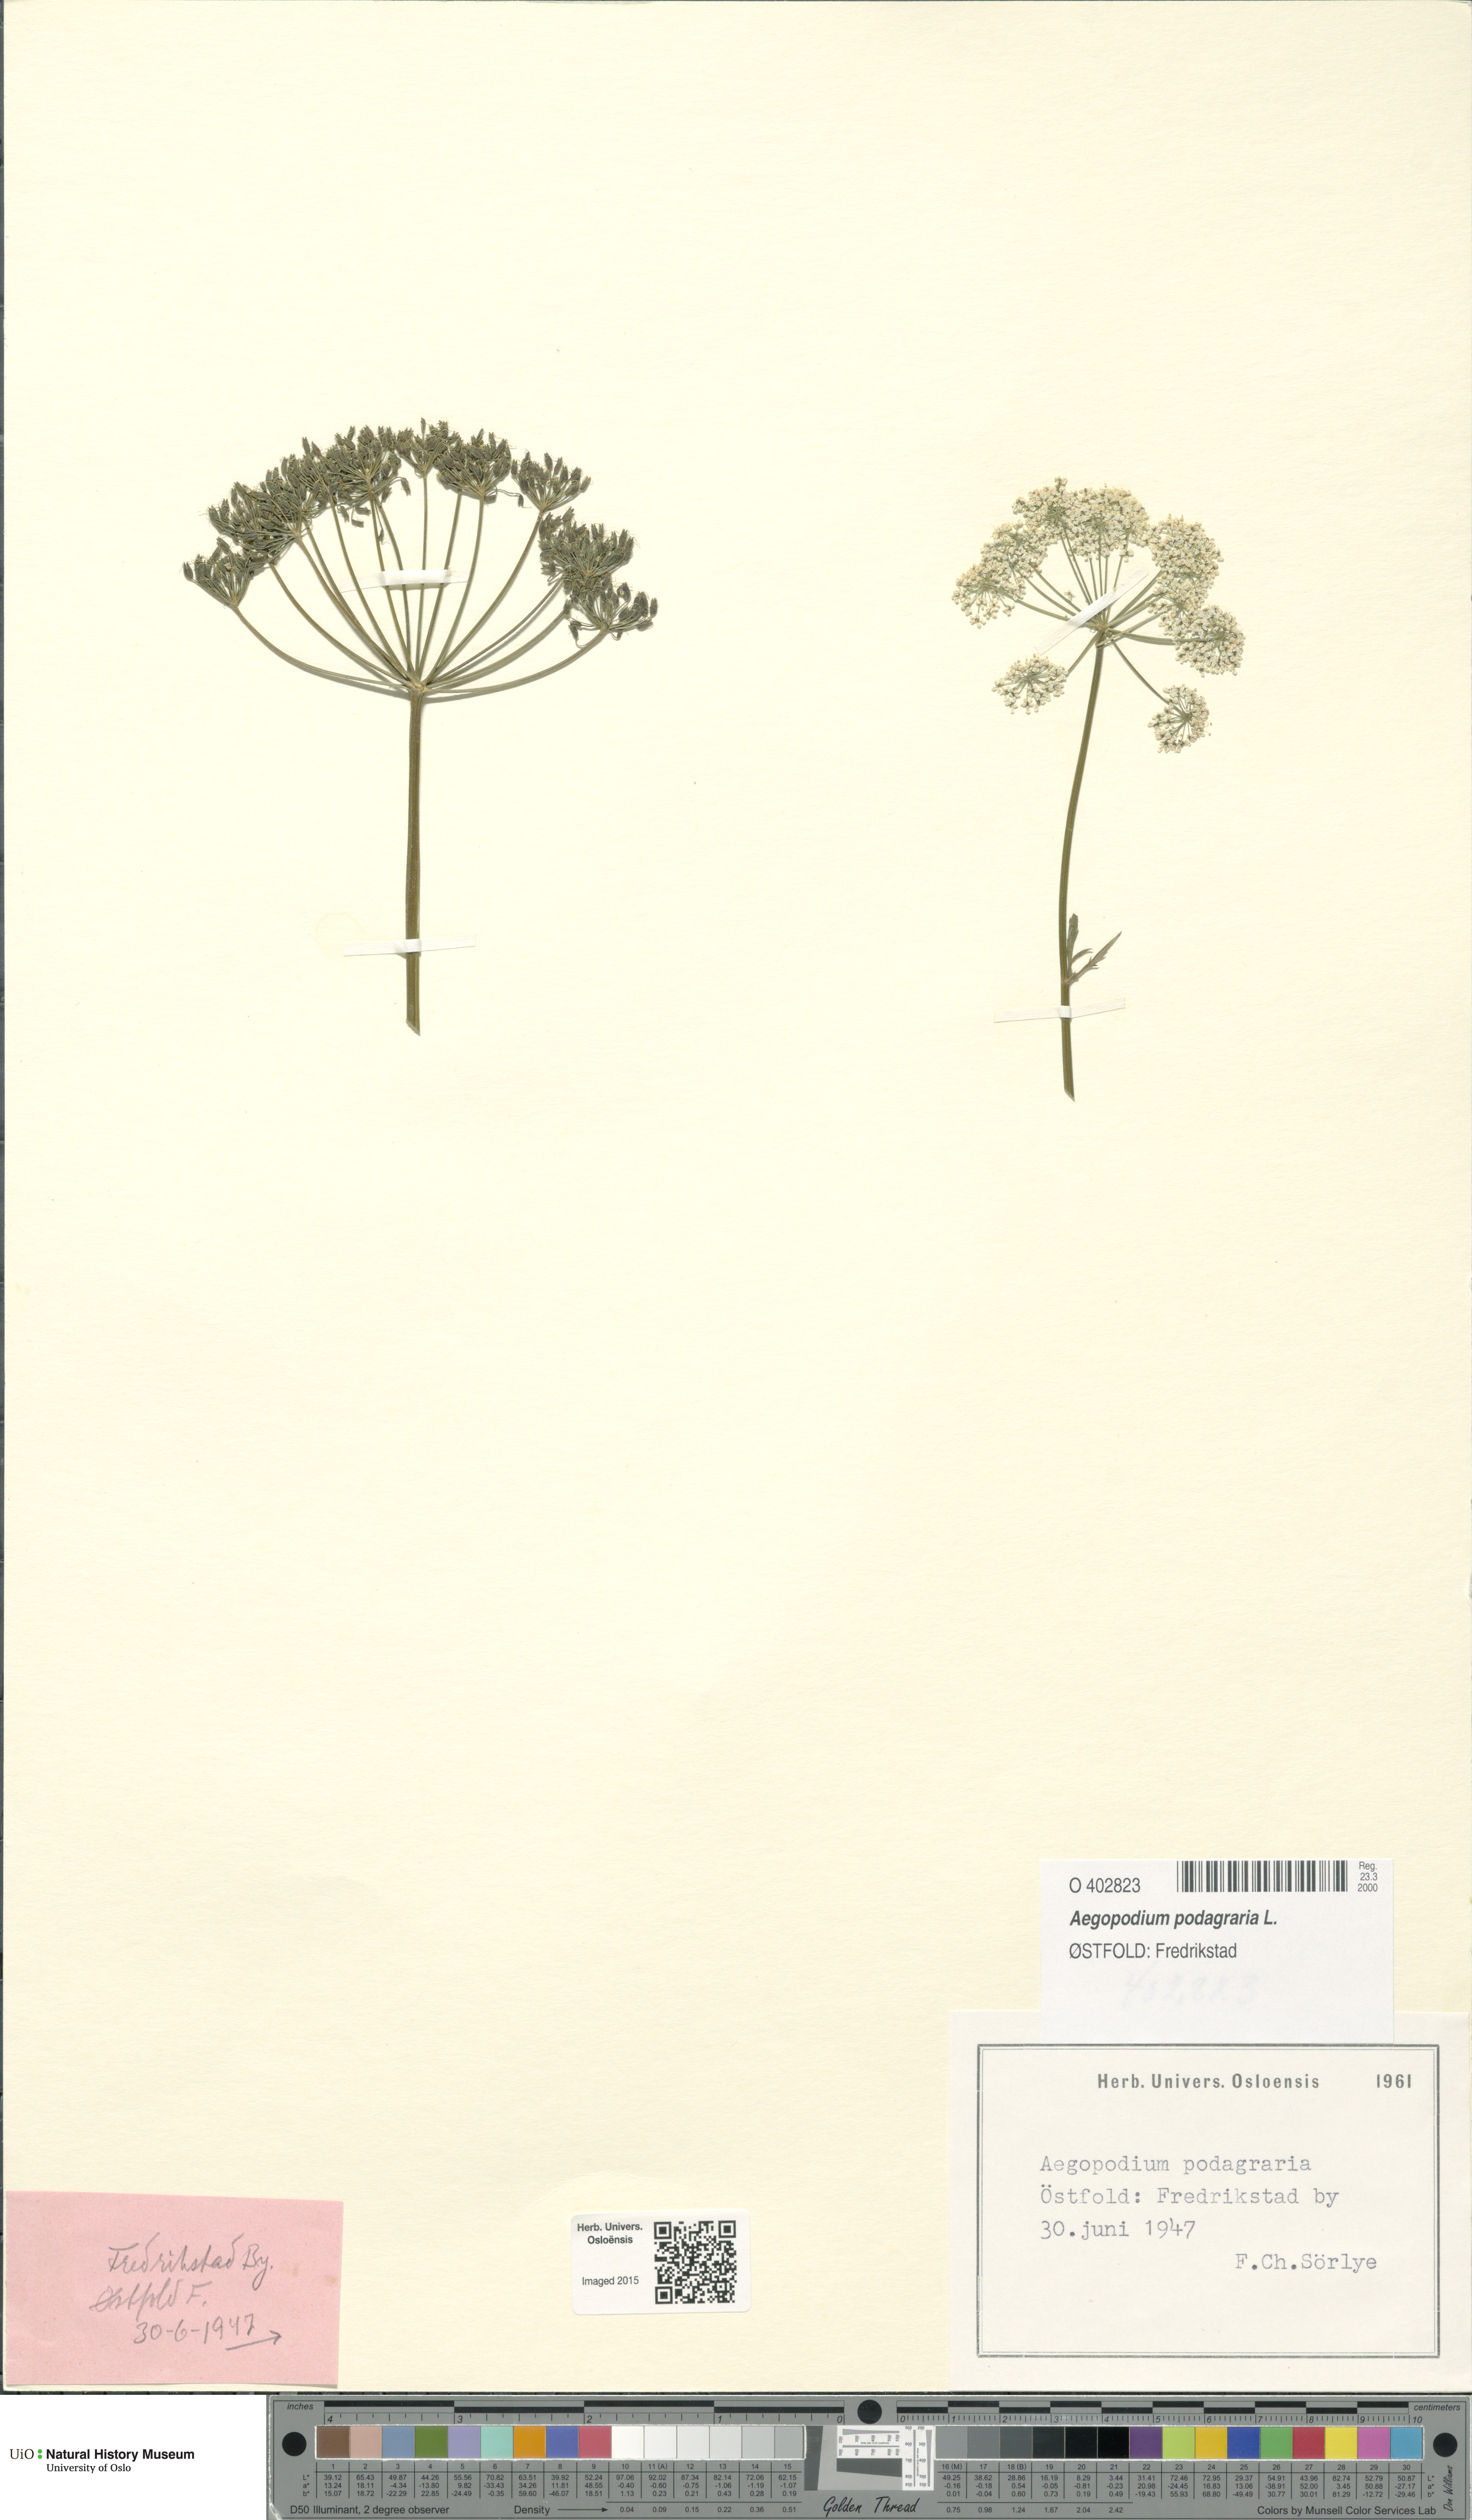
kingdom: Plantae
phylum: Tracheophyta
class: Magnoliopsida
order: Apiales
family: Apiaceae
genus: Aegopodium
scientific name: Aegopodium podagraria
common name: Ground-elder
